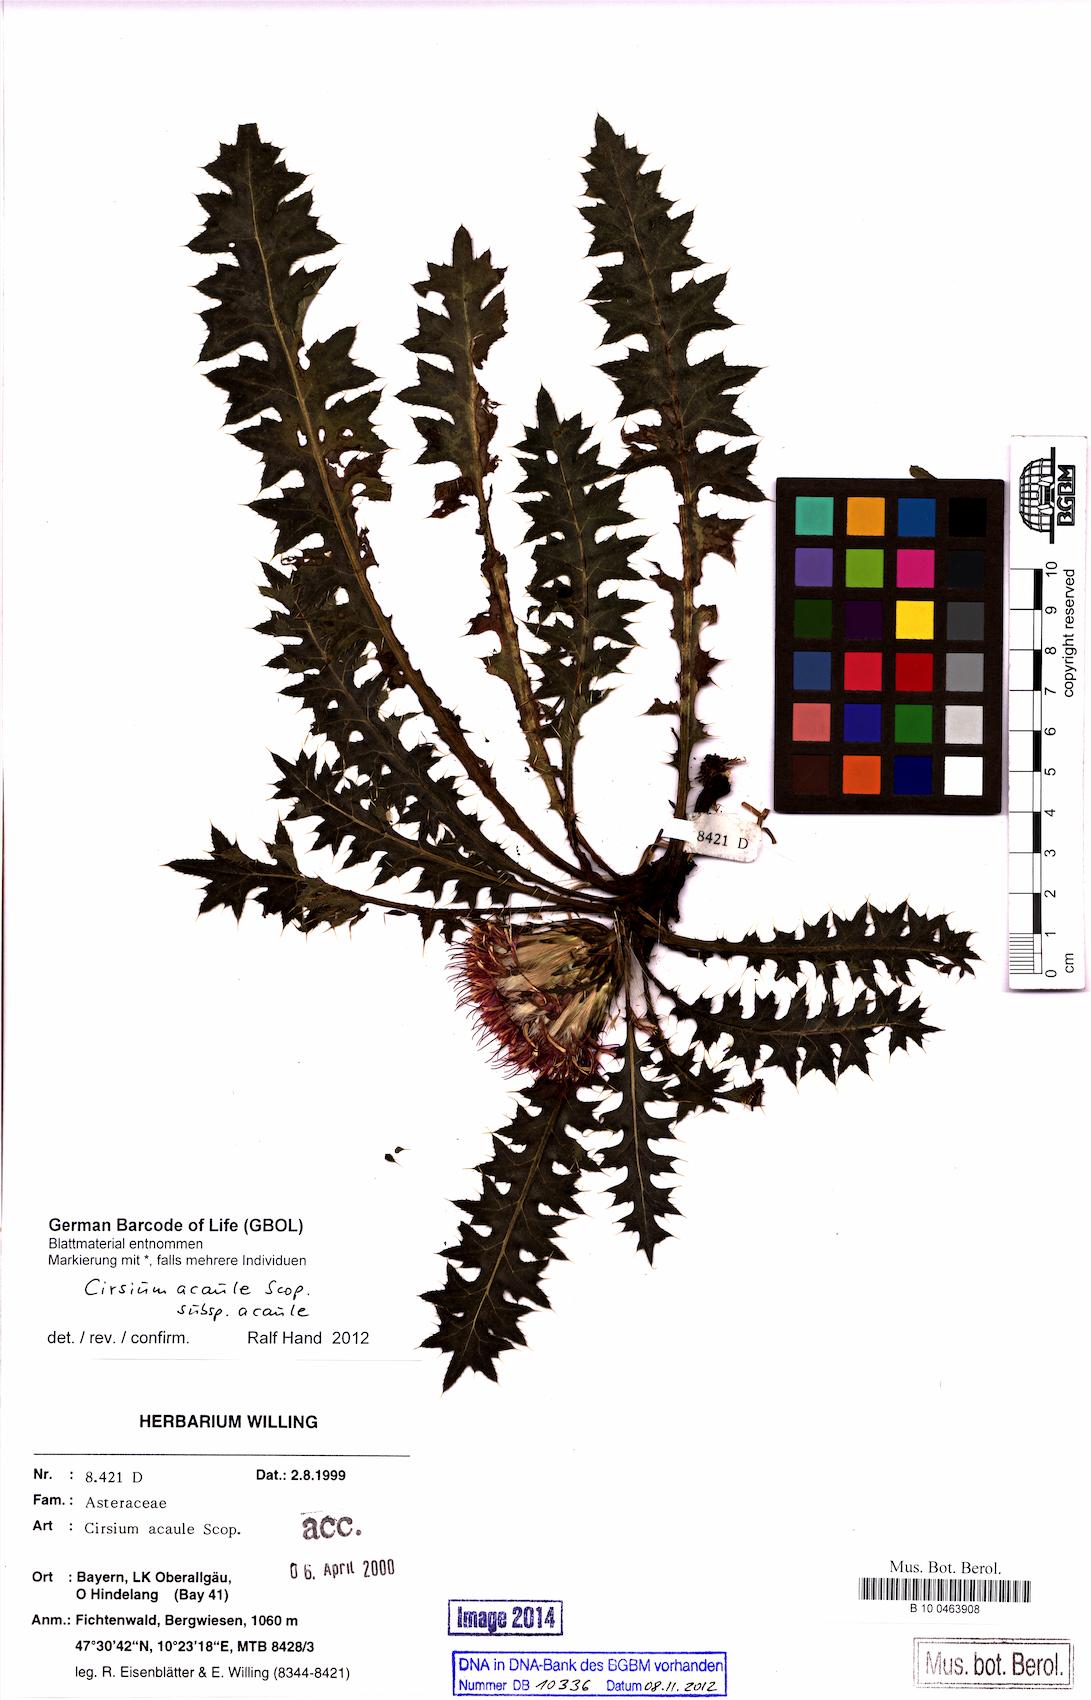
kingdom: Plantae
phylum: Tracheophyta
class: Magnoliopsida
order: Asterales
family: Asteraceae
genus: Cirsium
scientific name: Cirsium acaule
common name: Dwarf thistle
